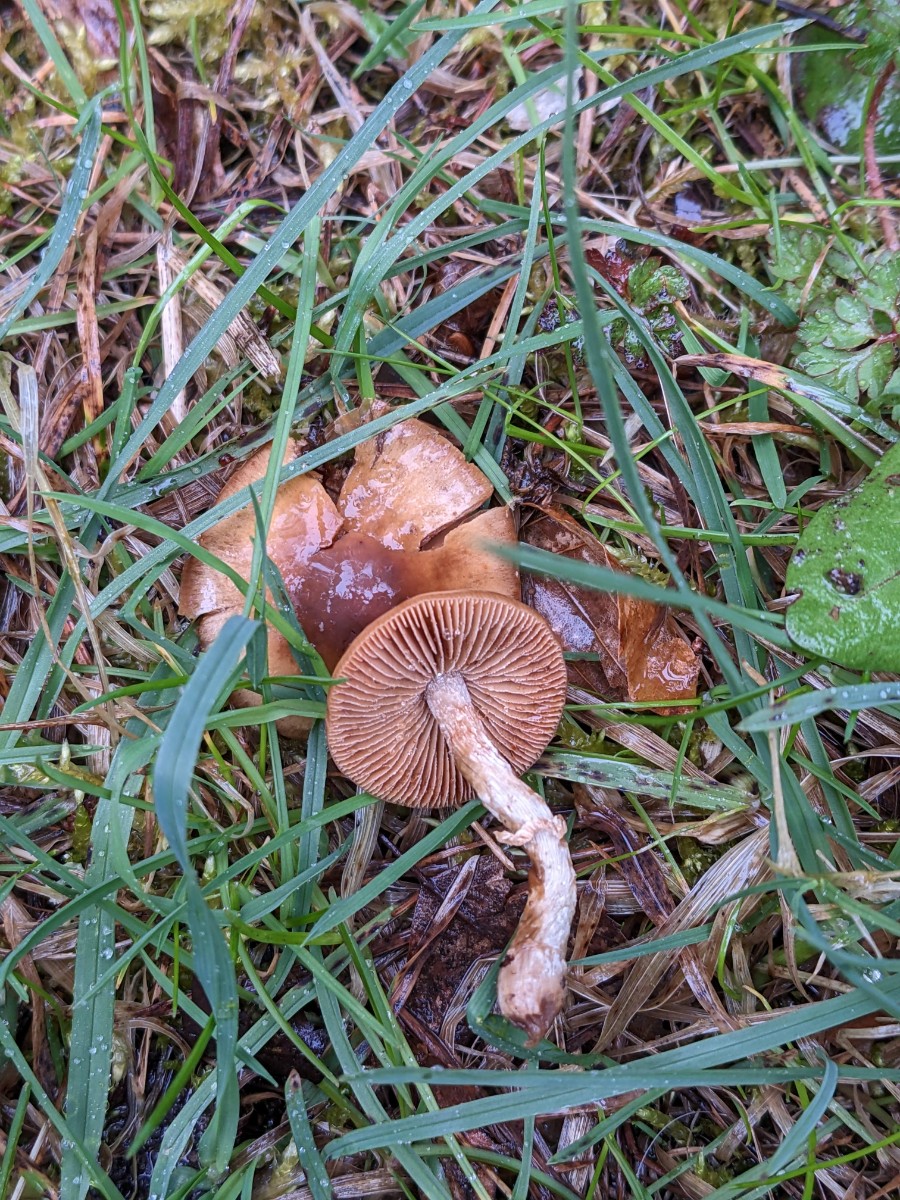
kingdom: Fungi
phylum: Basidiomycota
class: Agaricomycetes
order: Agaricales
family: Bolbitiaceae
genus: Conocybe
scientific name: Conocybe aporos
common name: tidlig dansehat
